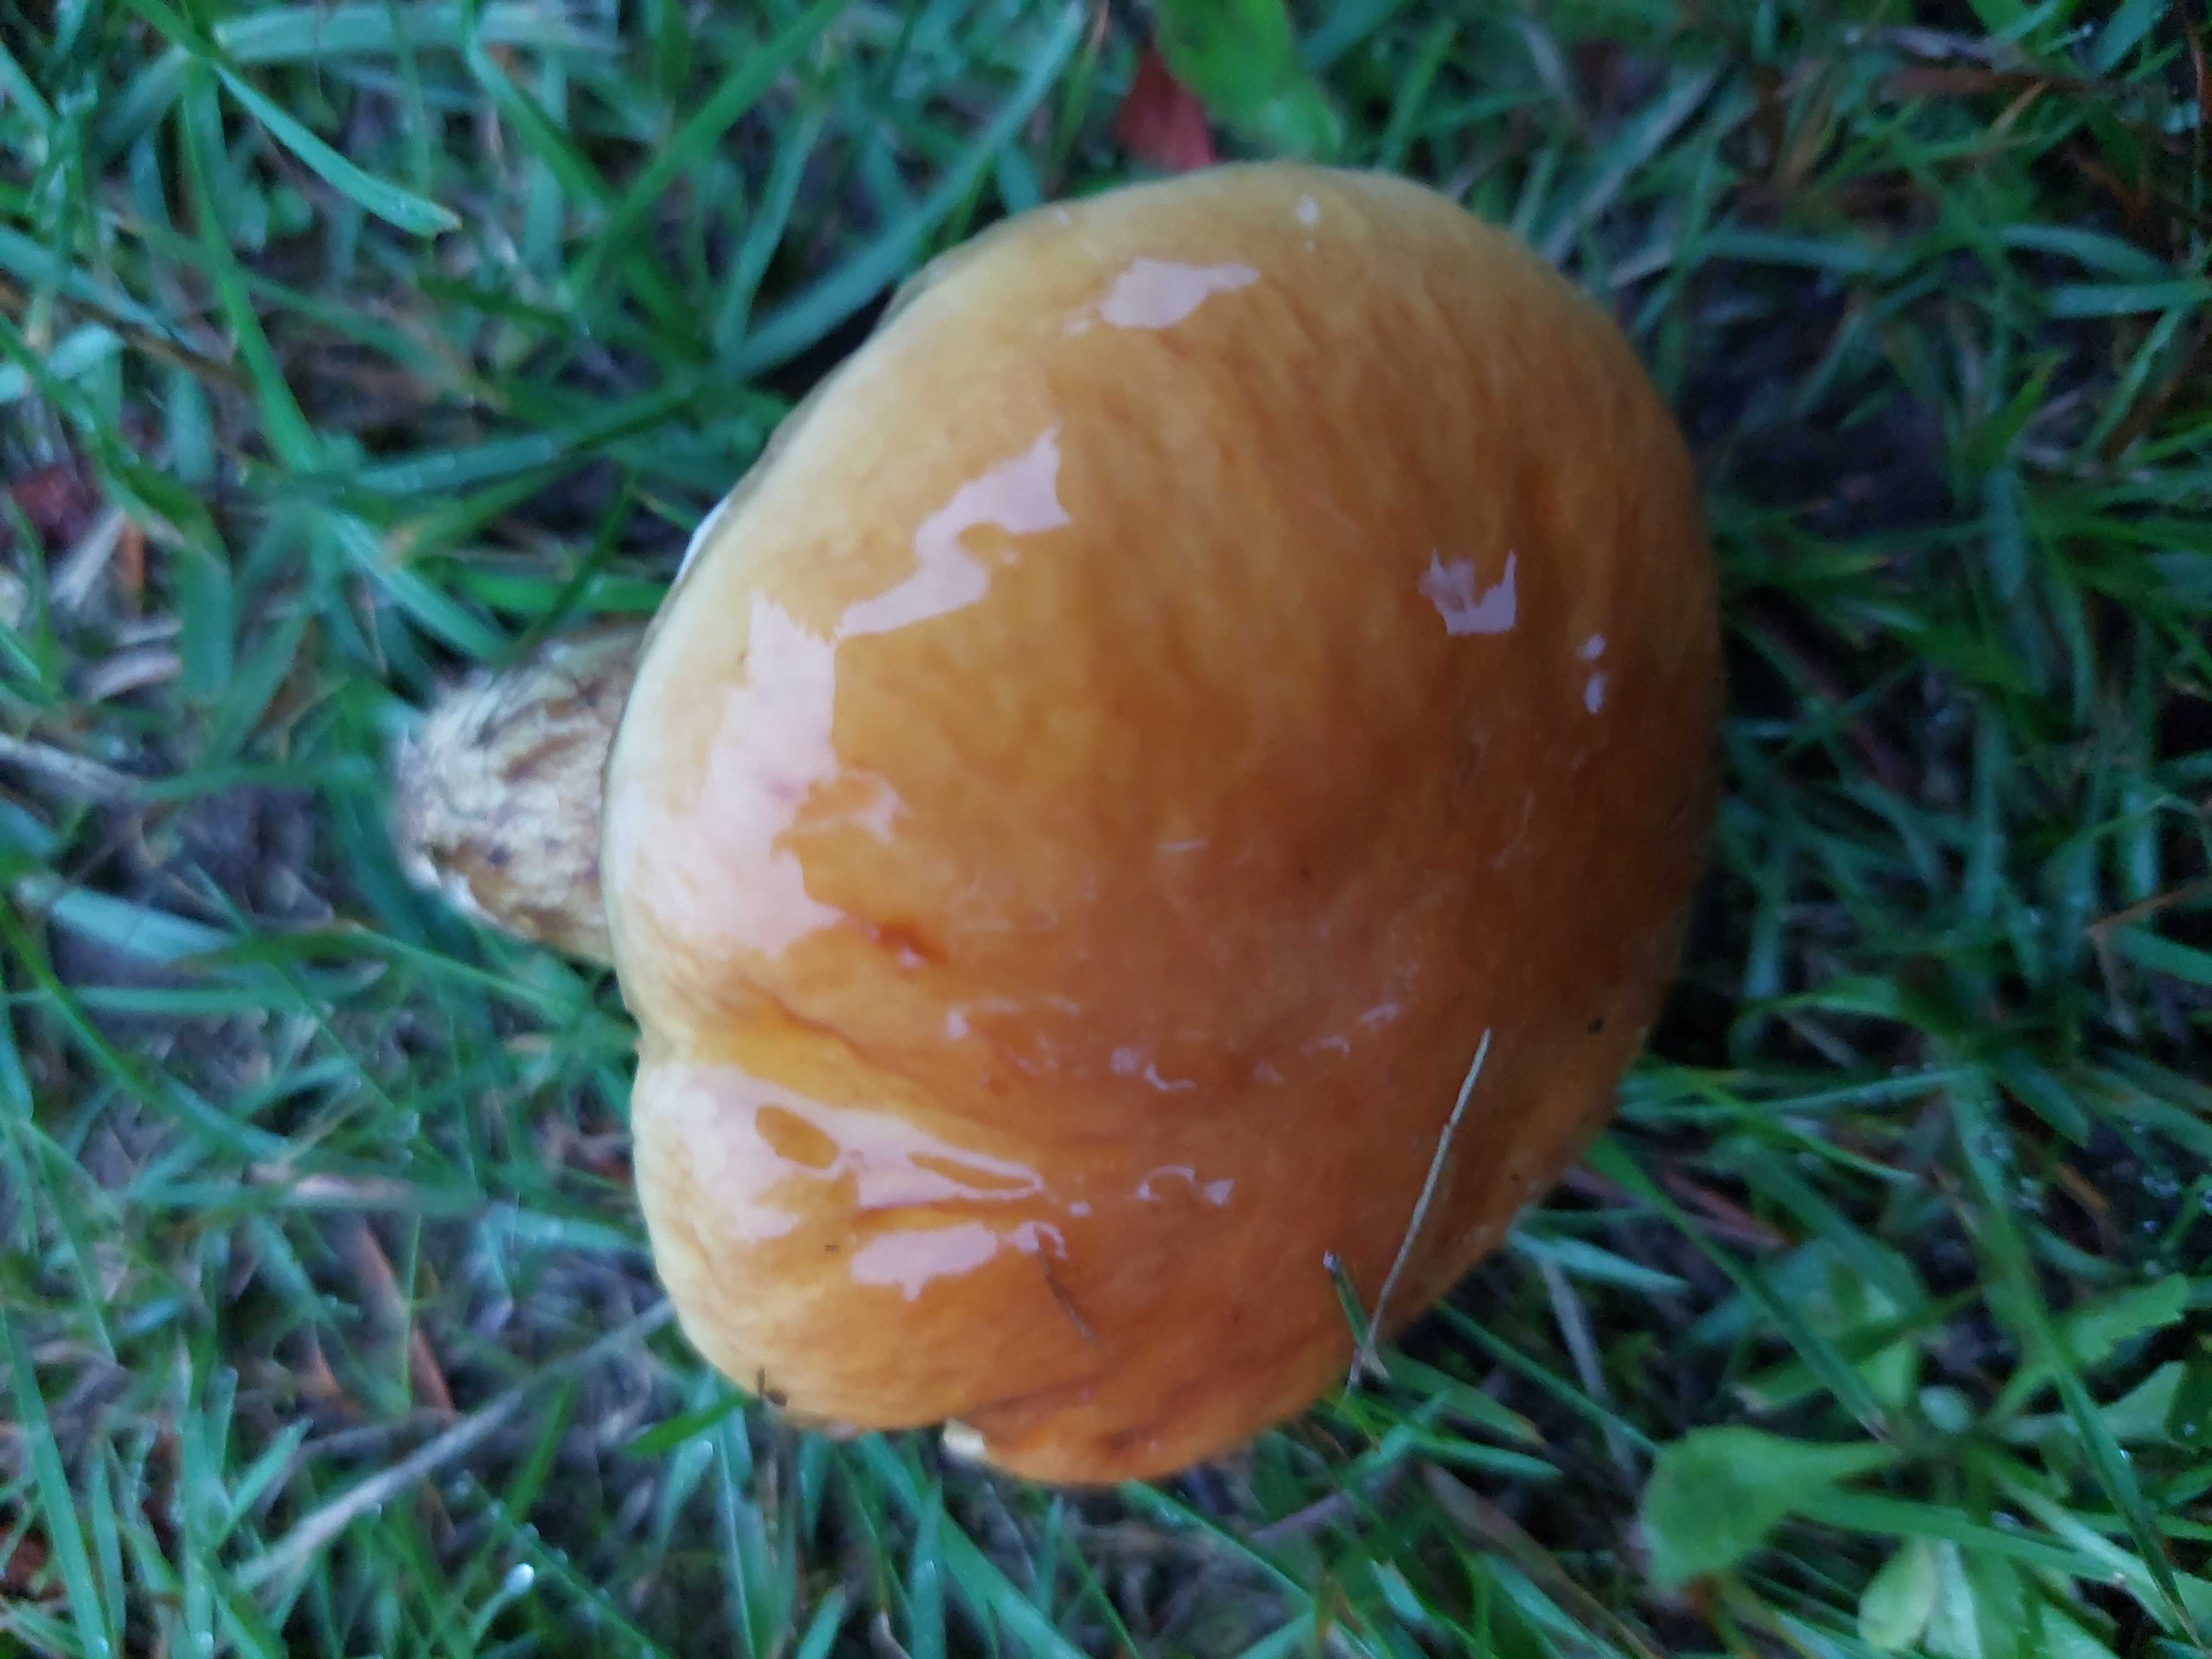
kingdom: Fungi
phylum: Basidiomycota
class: Agaricomycetes
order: Boletales
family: Boletaceae
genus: Imleria
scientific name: Imleria badia
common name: brunstokket rørhat
